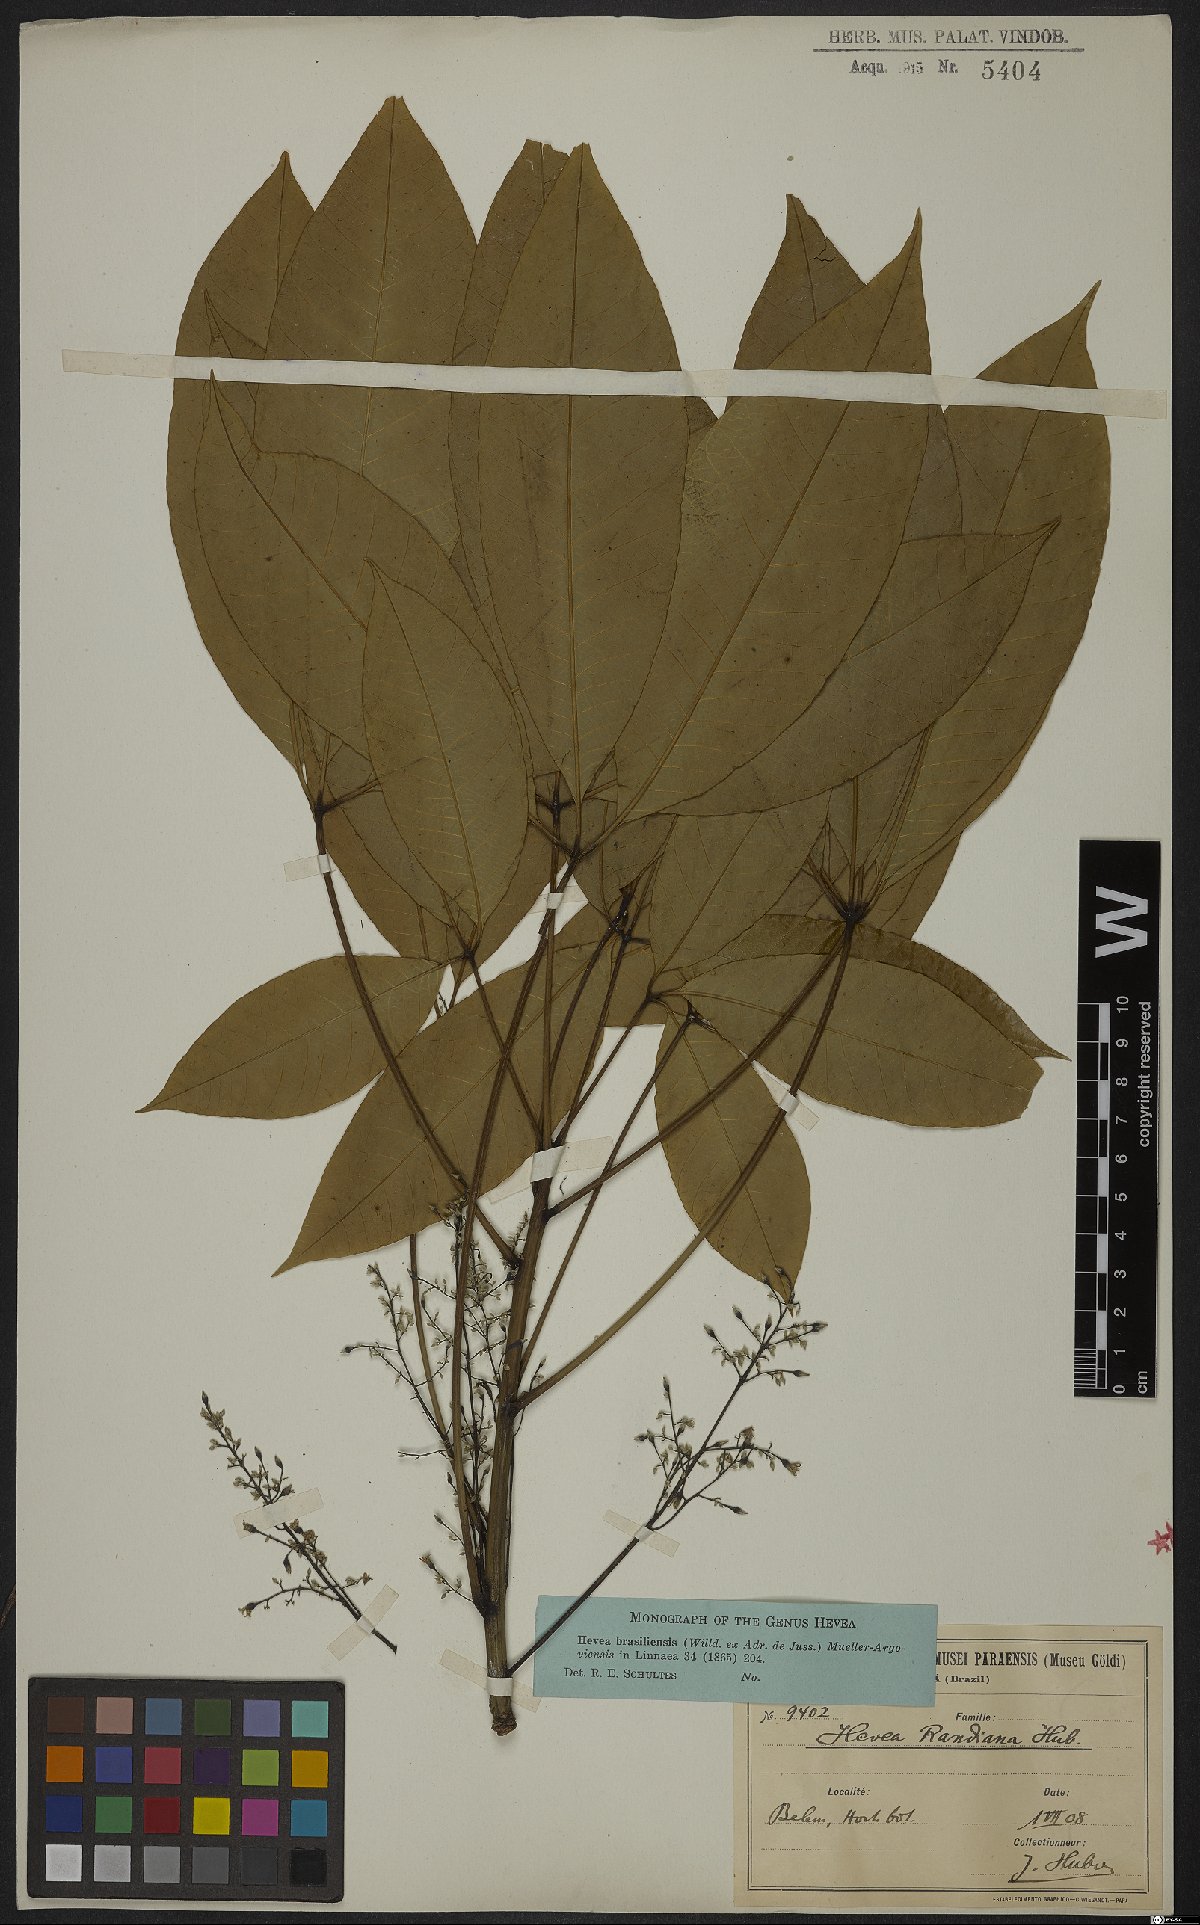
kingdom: Plantae
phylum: Tracheophyta
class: Magnoliopsida
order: Malpighiales
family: Euphorbiaceae
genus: Hevea
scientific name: Hevea brasiliensis
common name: Natural rubber
